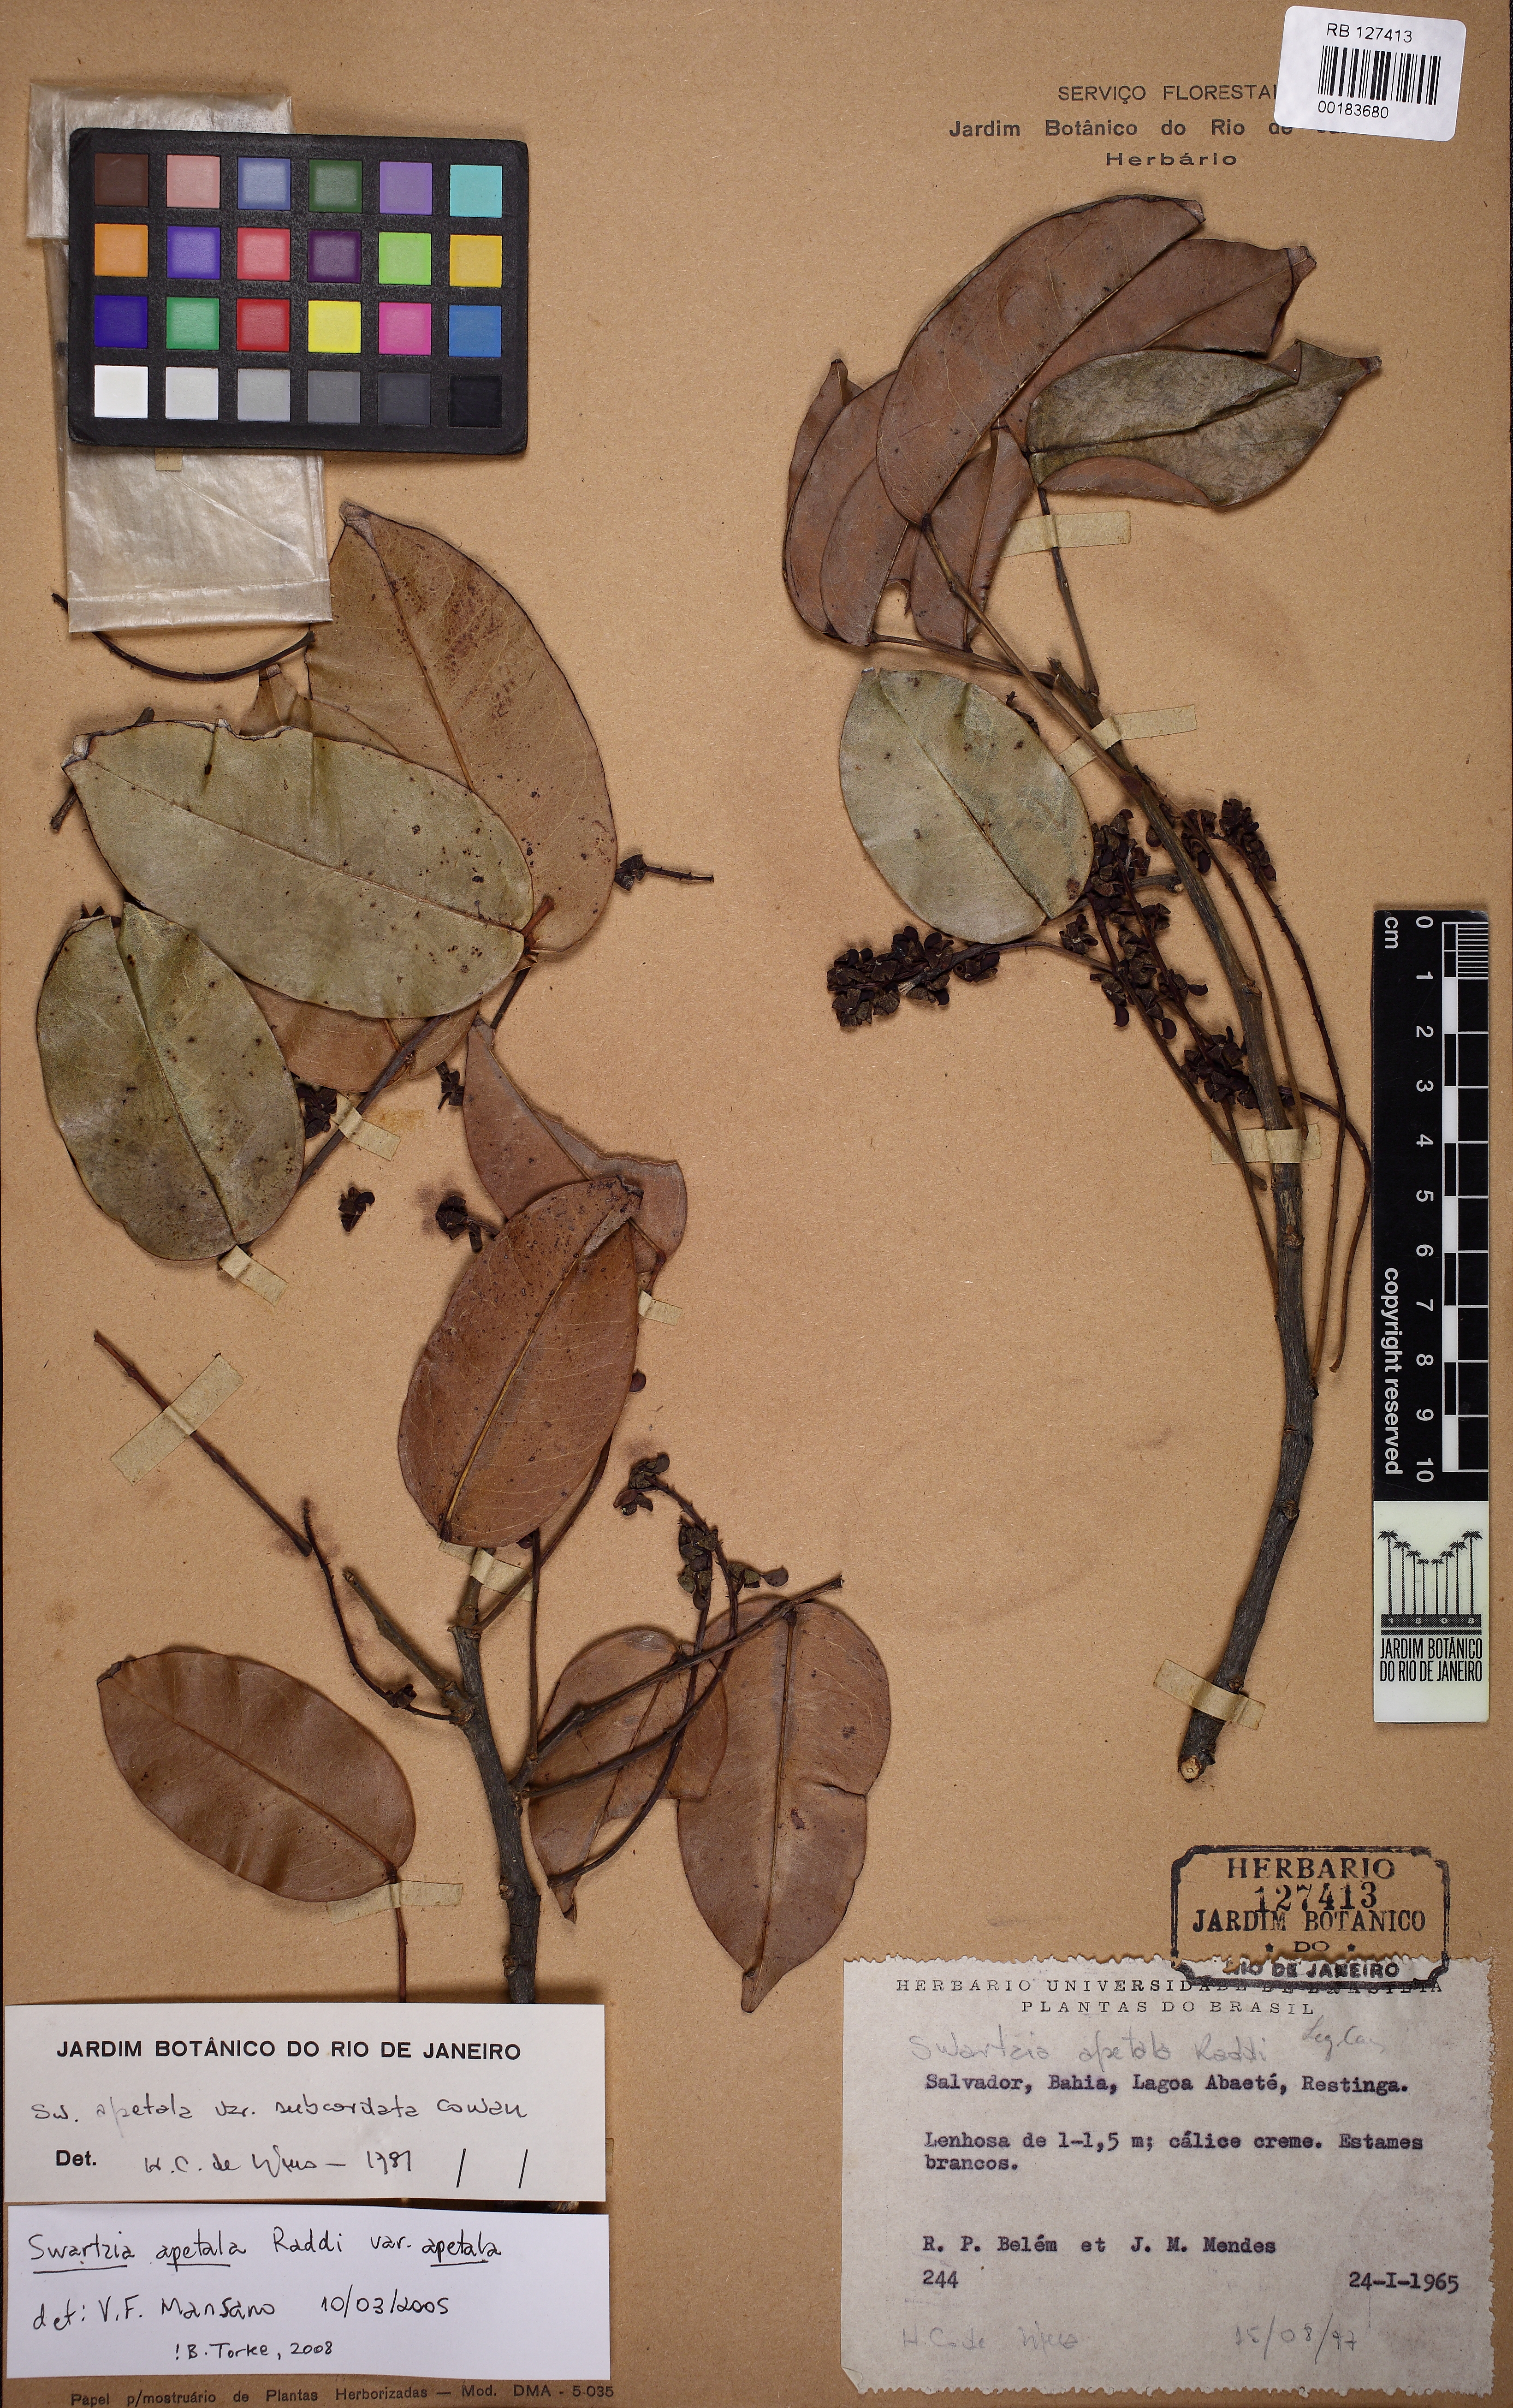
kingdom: Plantae
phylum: Tracheophyta
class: Magnoliopsida
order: Fabales
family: Fabaceae
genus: Swartzia
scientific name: Swartzia apetala
